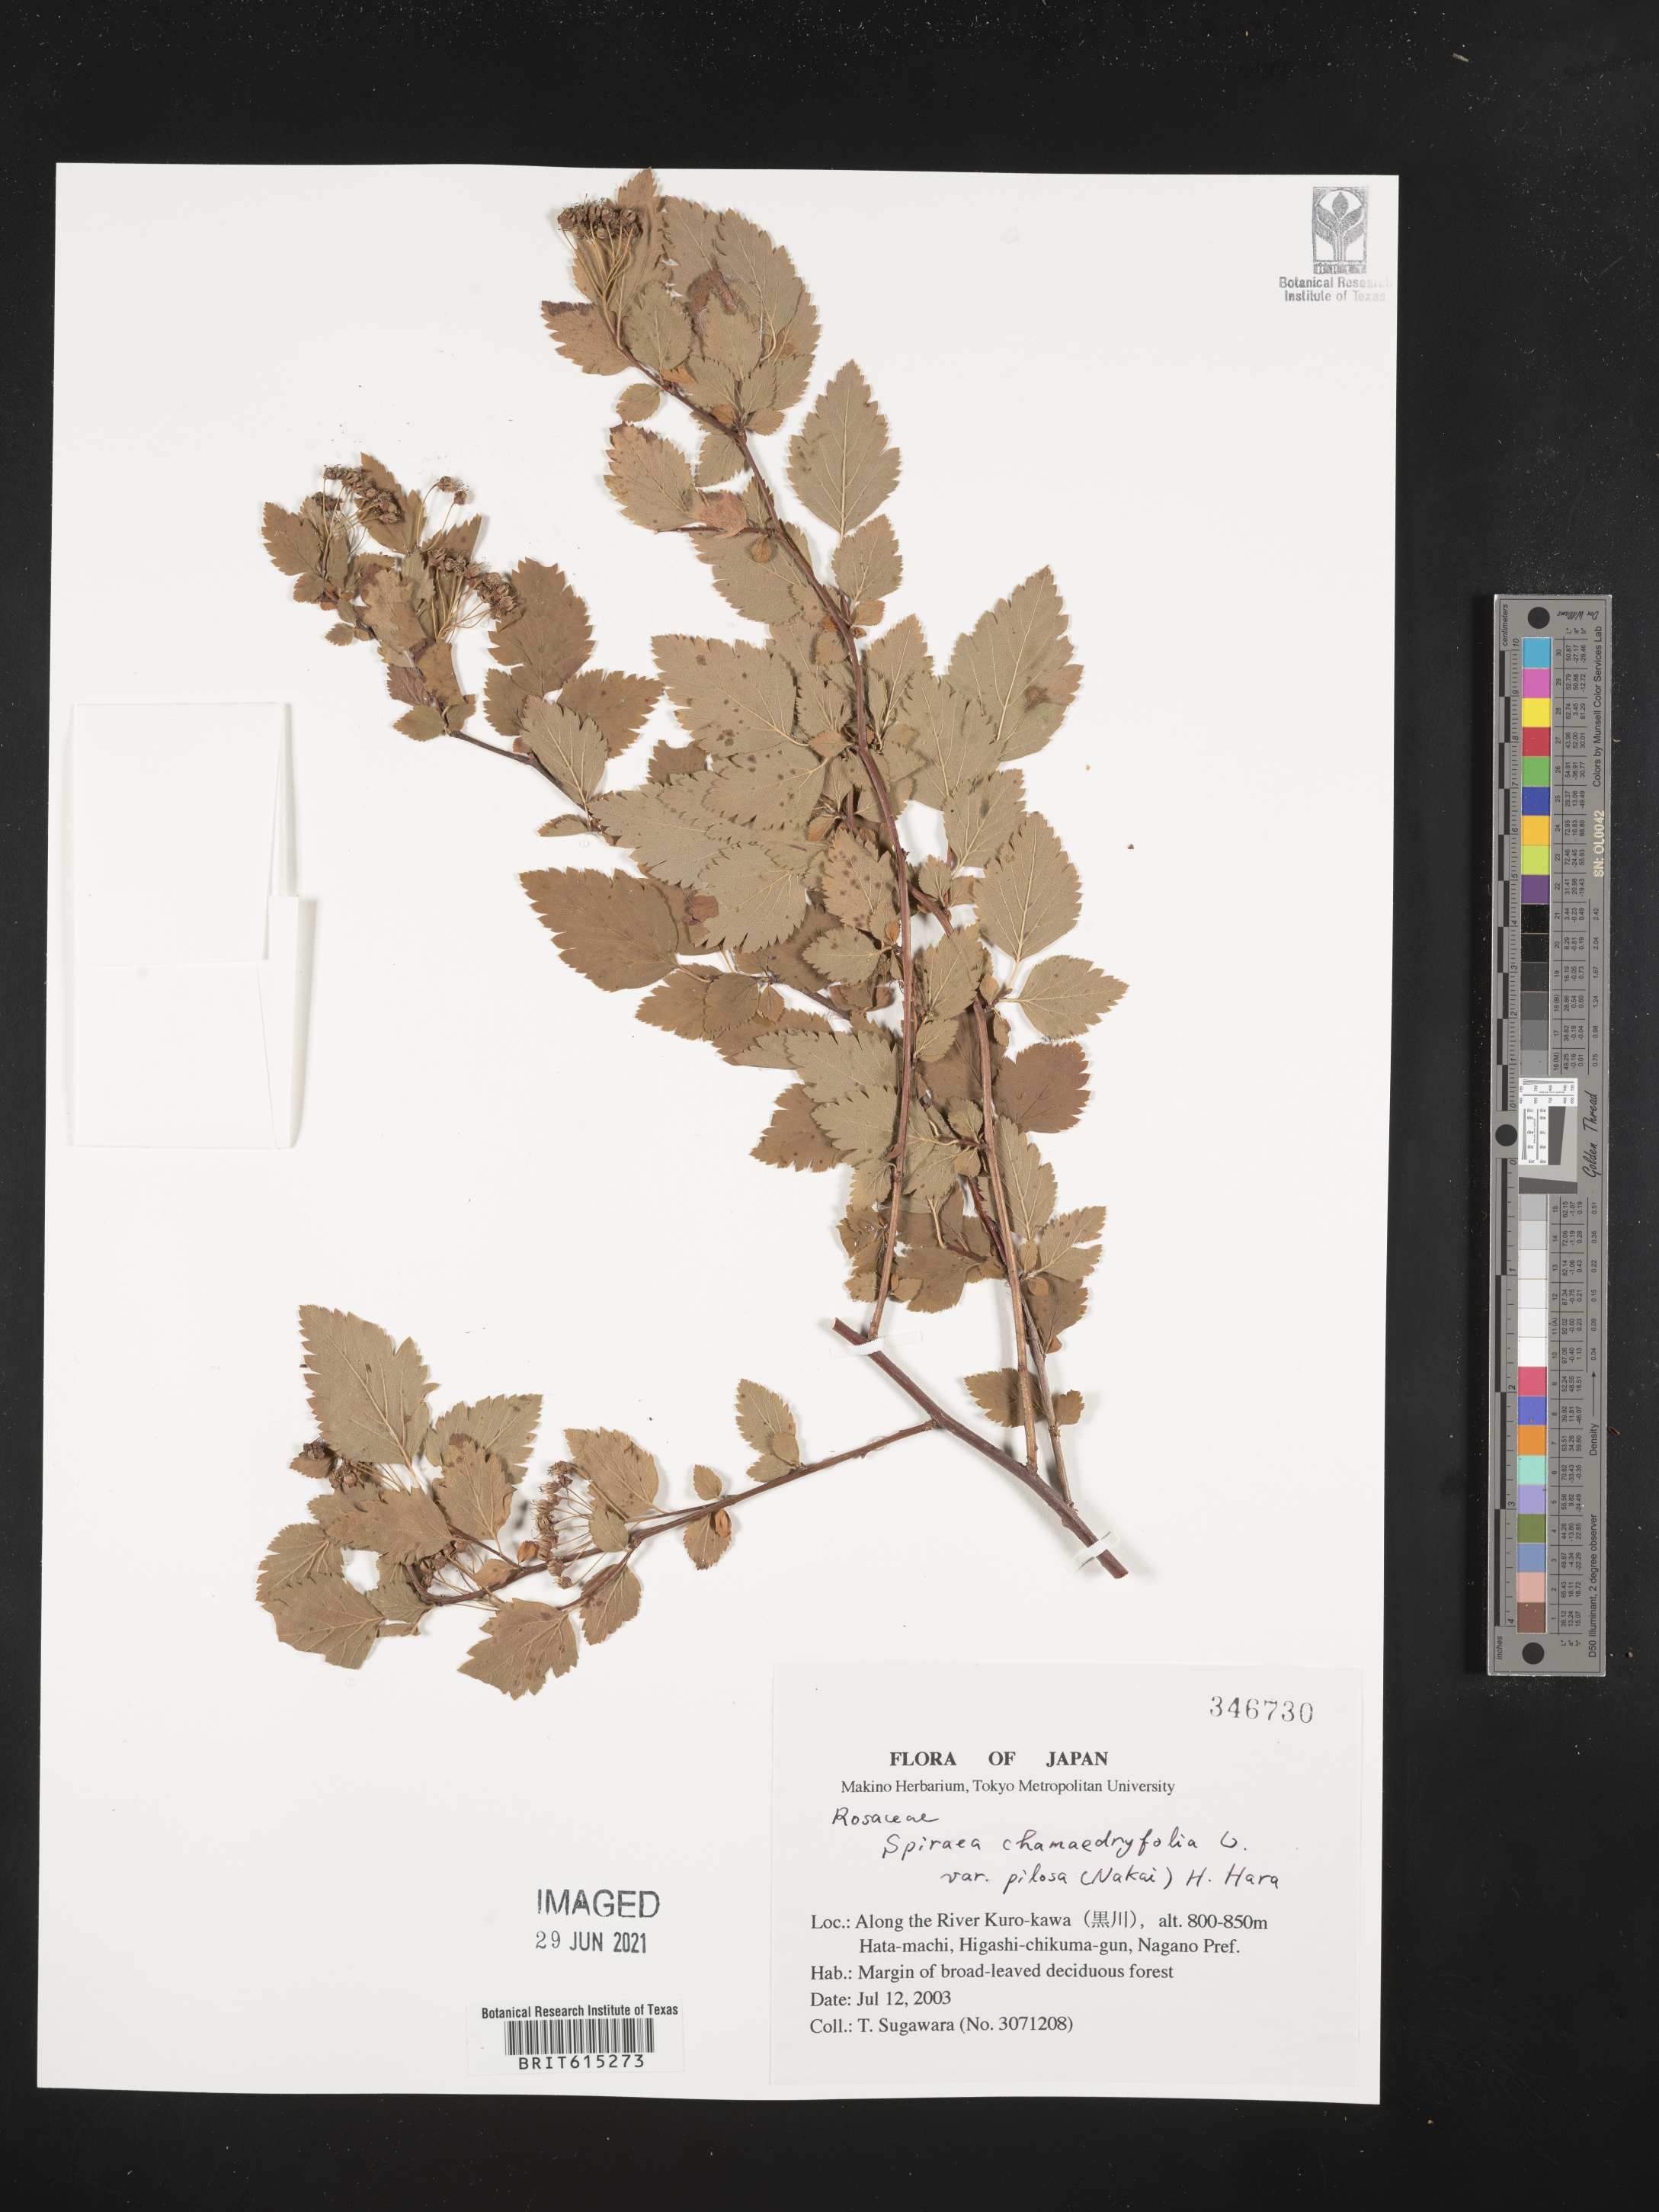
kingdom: Plantae
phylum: Tracheophyta
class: Magnoliopsida
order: Rosales
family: Rosaceae
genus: Spiraea
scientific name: Spiraea chamaedryfolia
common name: Elm-leaved spiraea
